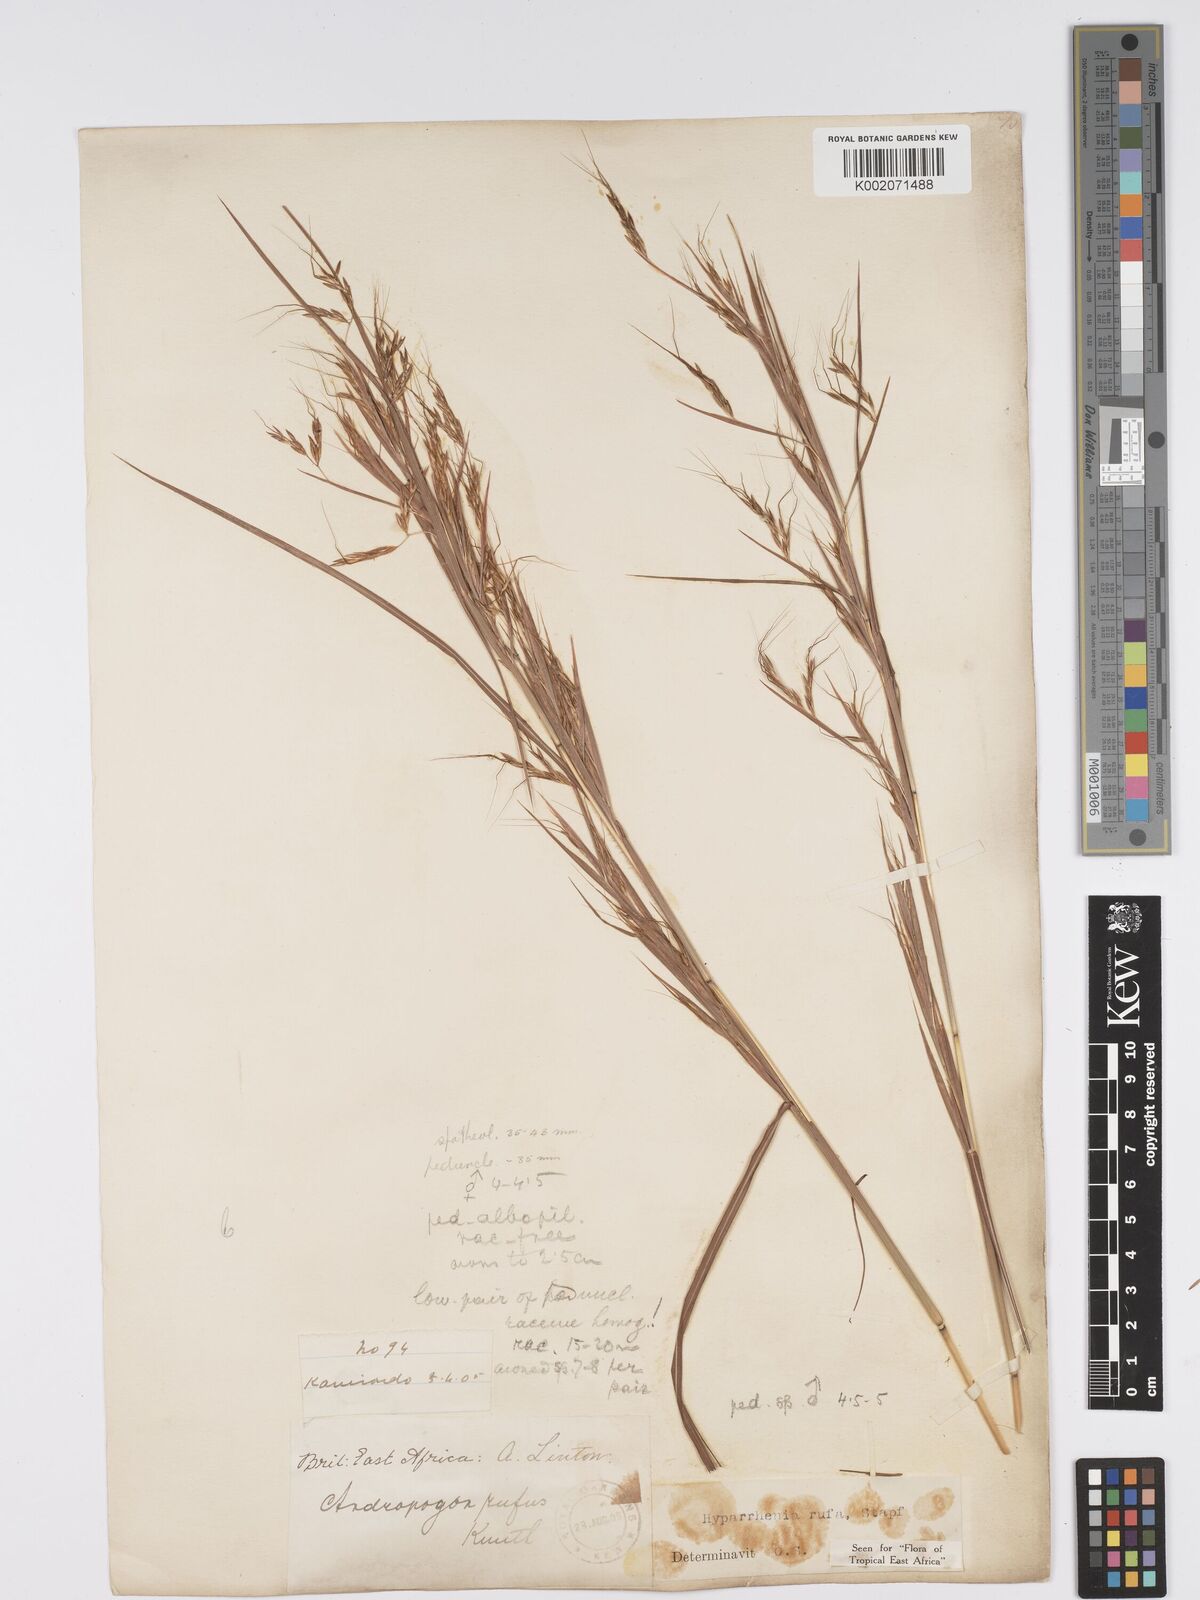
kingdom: Plantae
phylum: Tracheophyta
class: Liliopsida
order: Poales
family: Poaceae
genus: Hyparrhenia
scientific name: Hyparrhenia rufa
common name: Jaraguagrass
